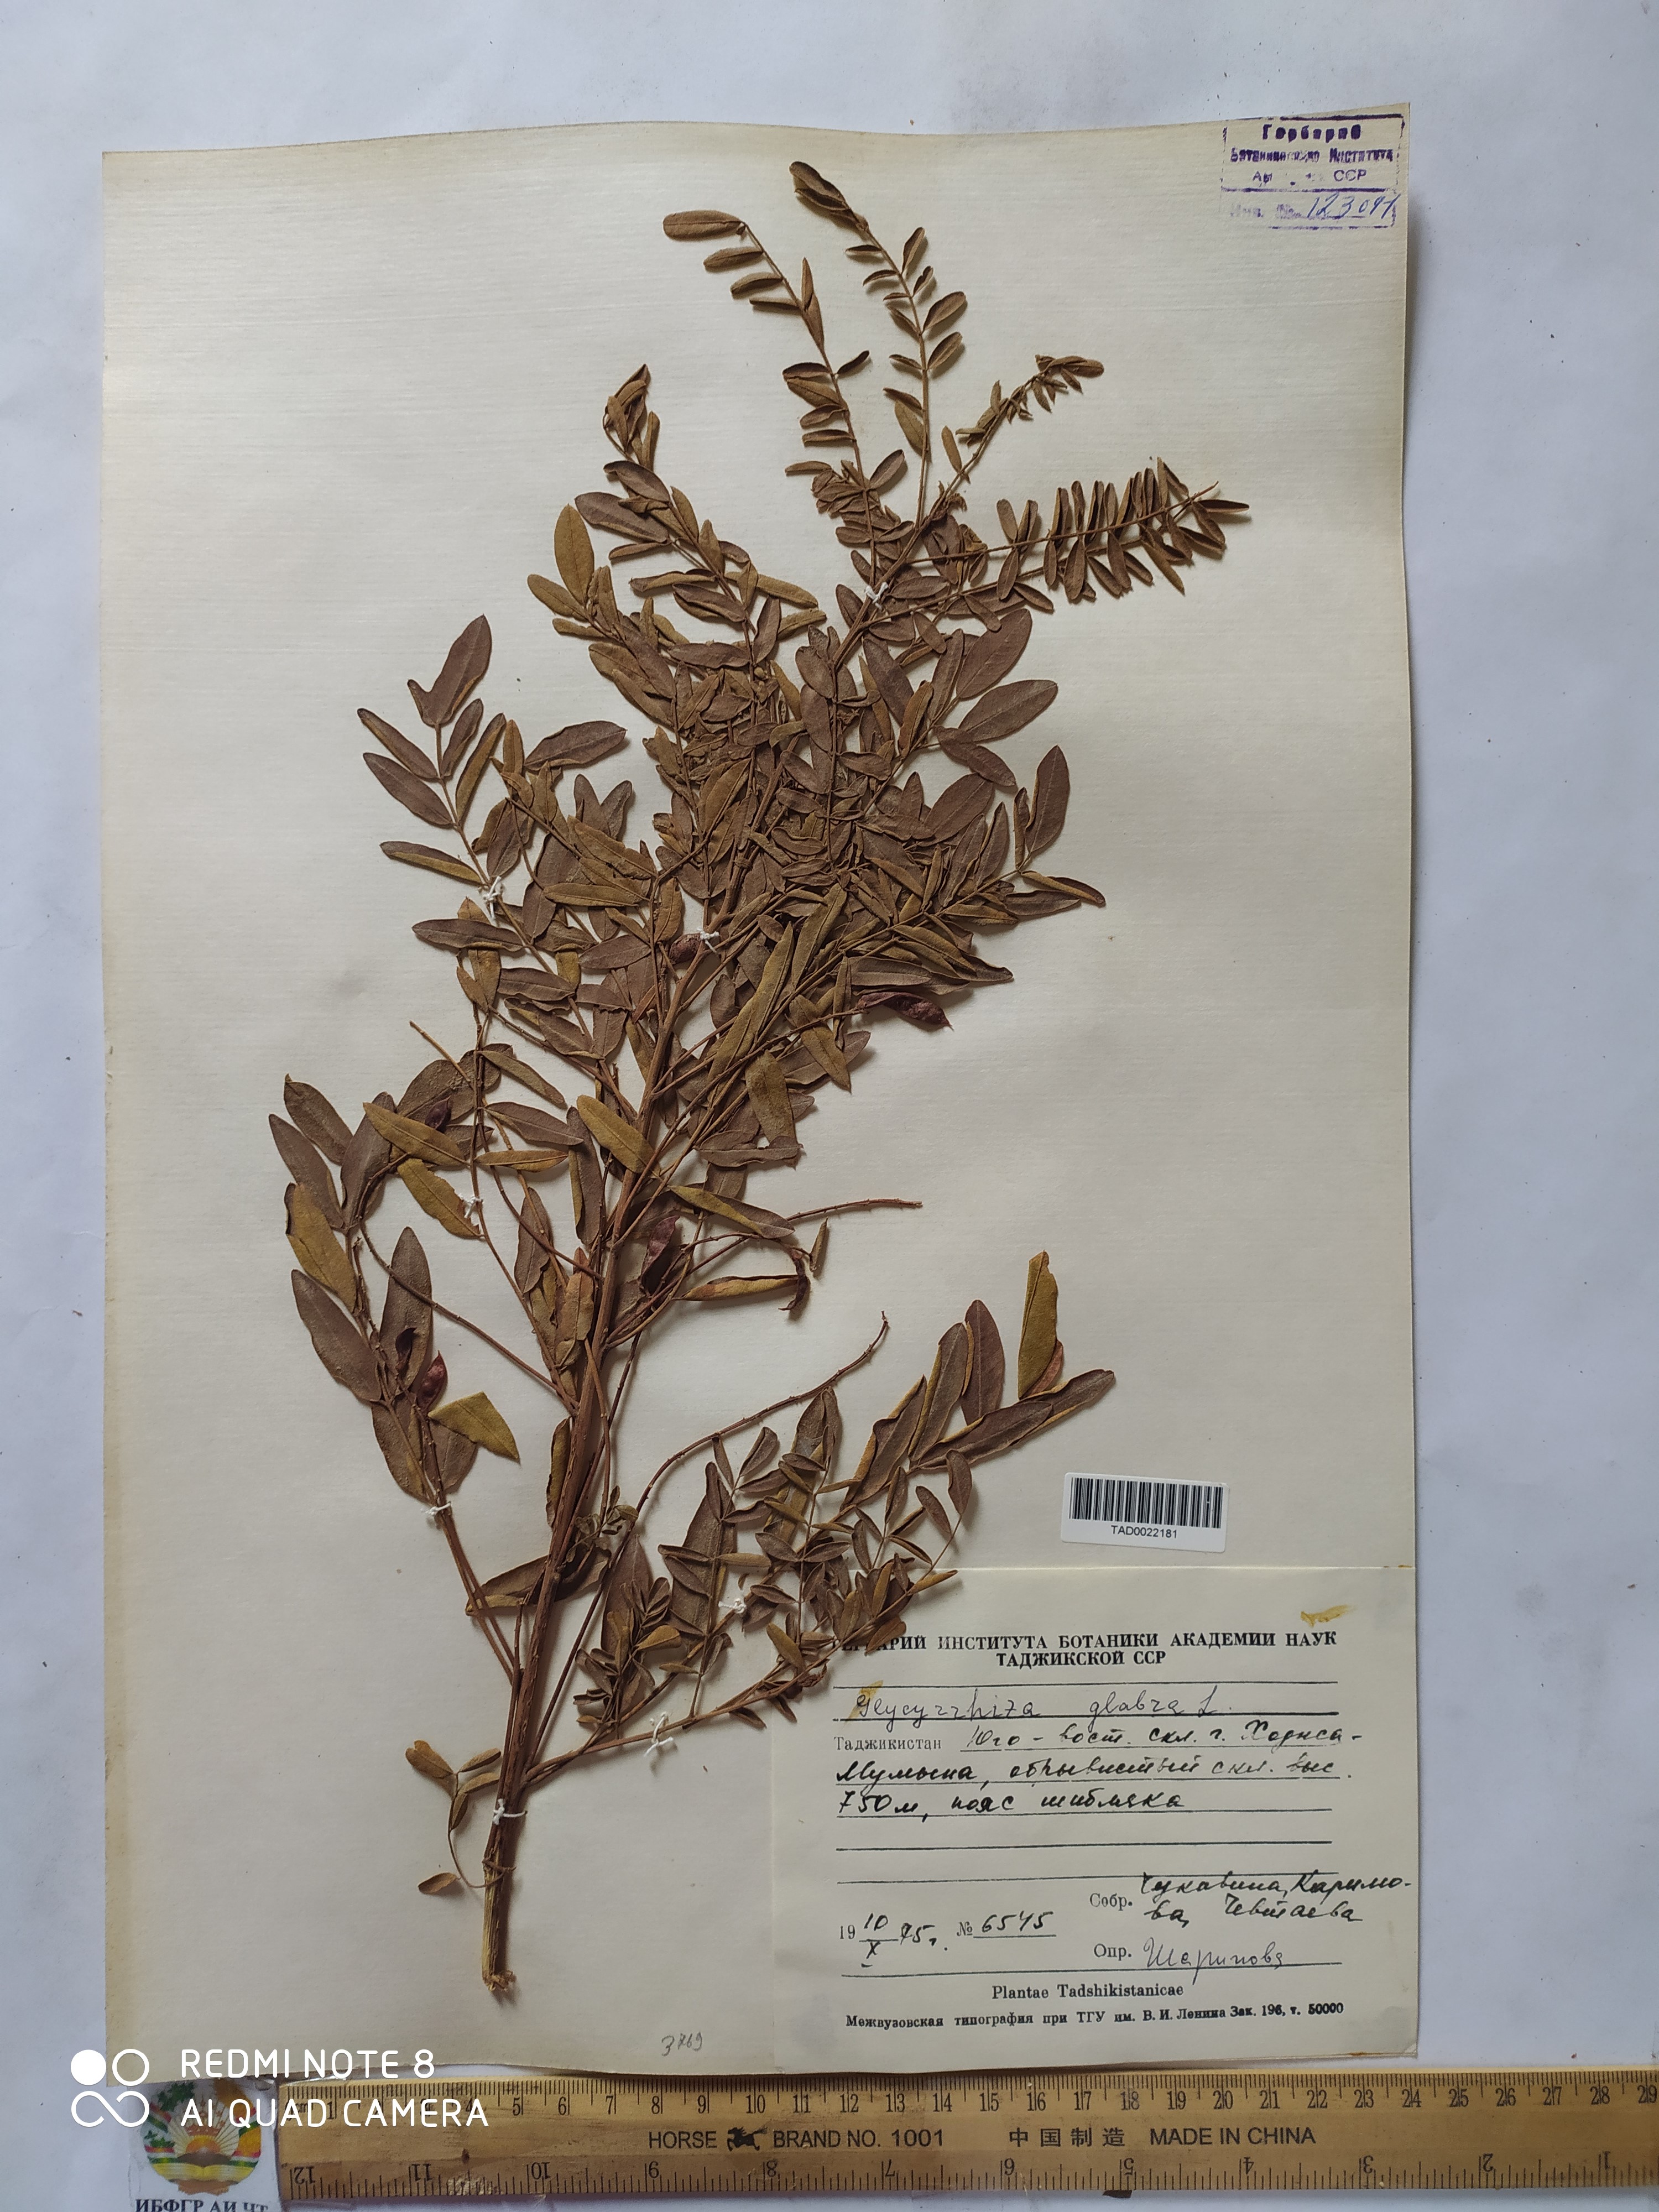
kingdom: Plantae
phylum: Tracheophyta
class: Magnoliopsida
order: Fabales
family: Fabaceae
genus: Glycyrrhiza
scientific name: Glycyrrhiza glabra
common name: Liquorice
